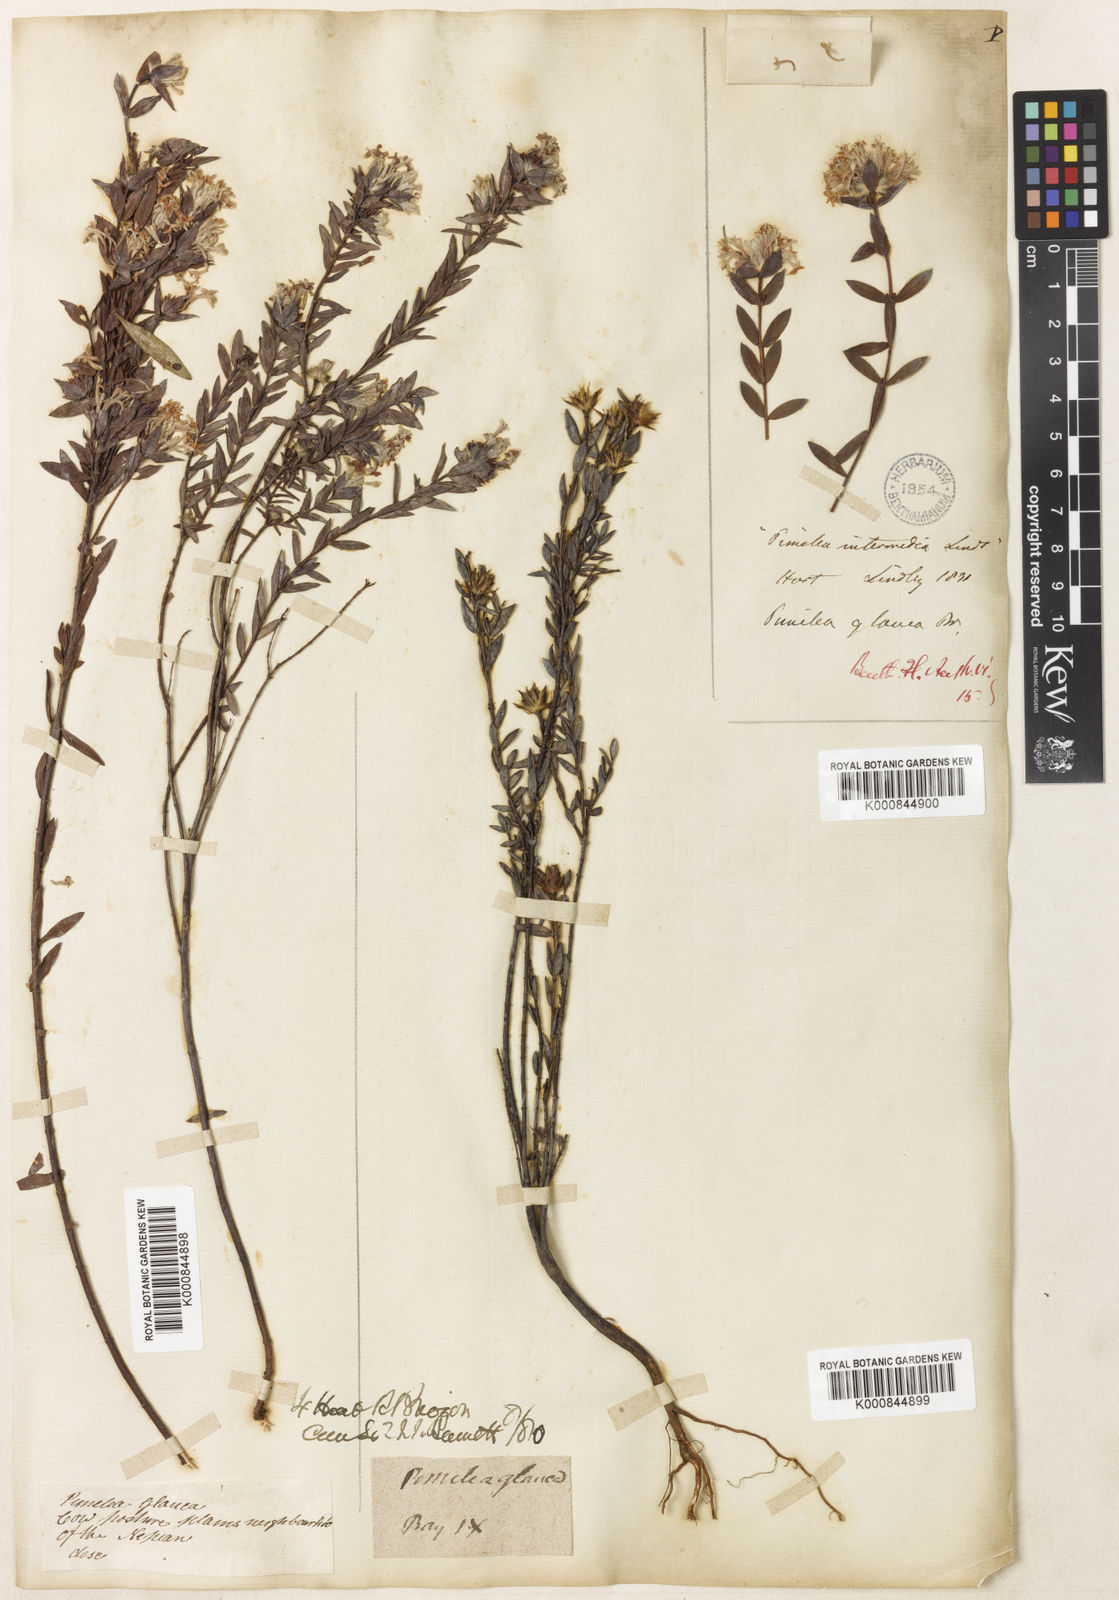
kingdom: Plantae
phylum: Tracheophyta
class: Magnoliopsida
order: Malvales
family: Thymelaeaceae
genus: Pimelea
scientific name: Pimelea glauca
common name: Smooth riceflower
